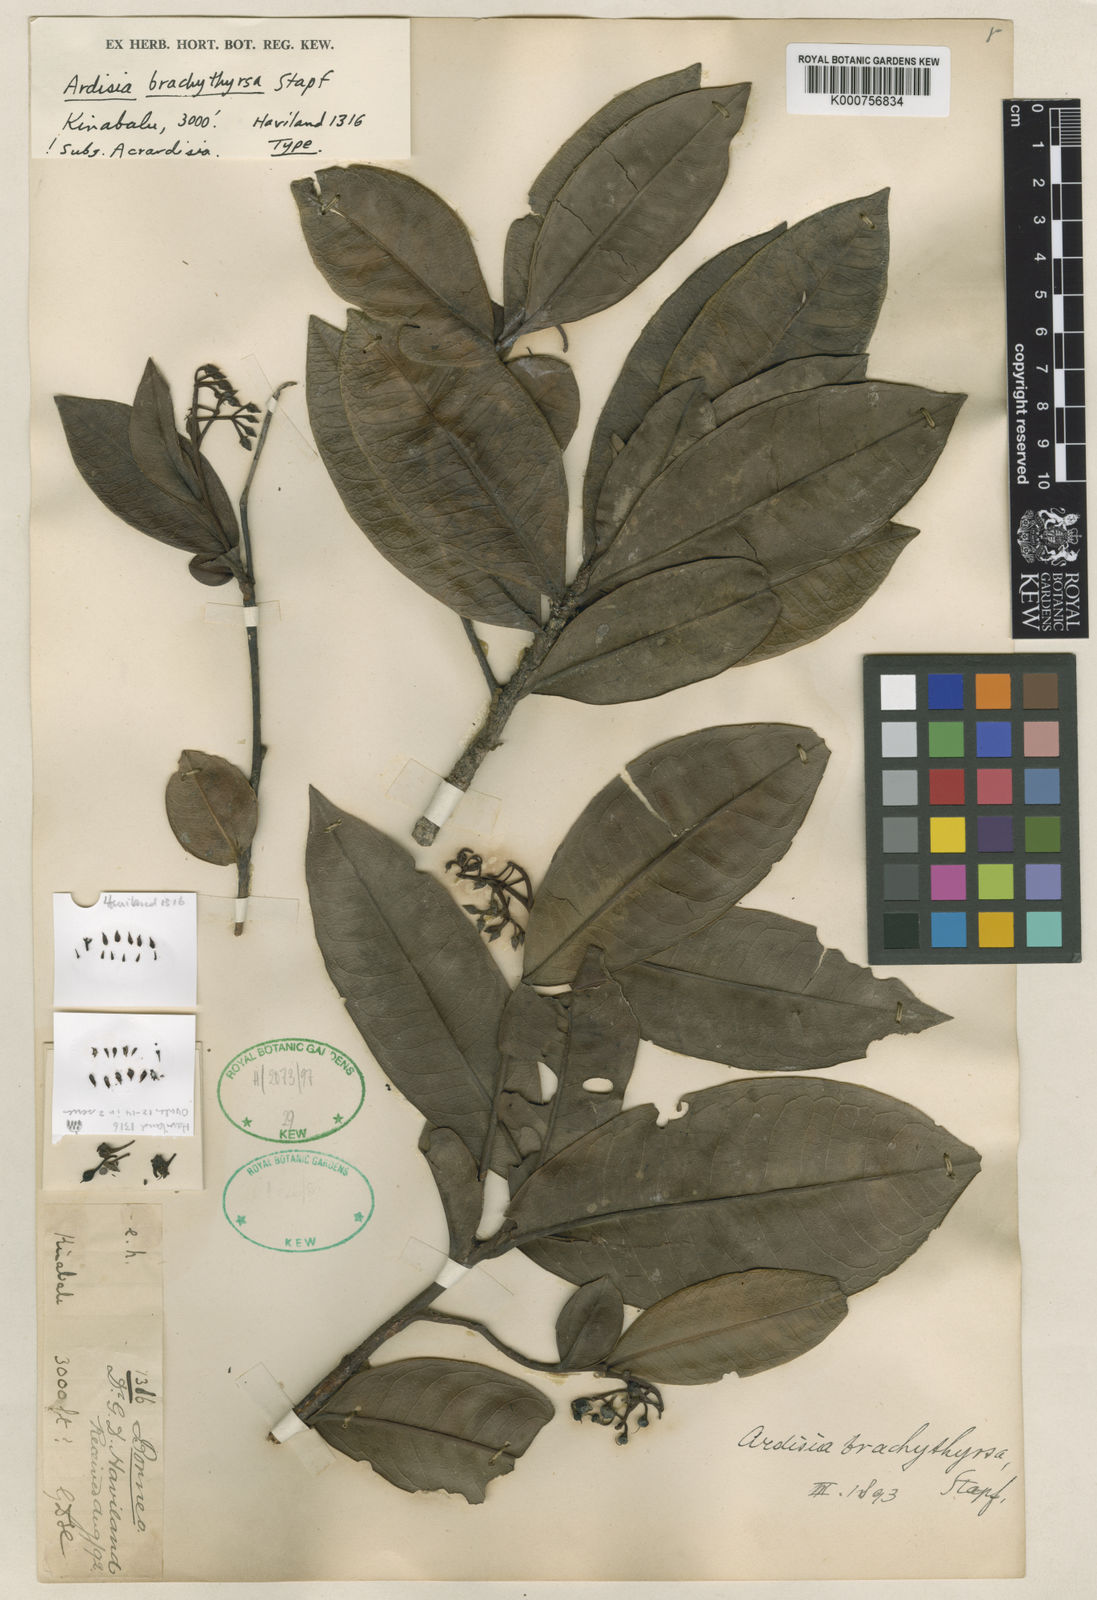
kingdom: Plantae
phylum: Tracheophyta
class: Magnoliopsida
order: Ericales
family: Primulaceae
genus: Ardisia
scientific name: Ardisia brachythyrsa
